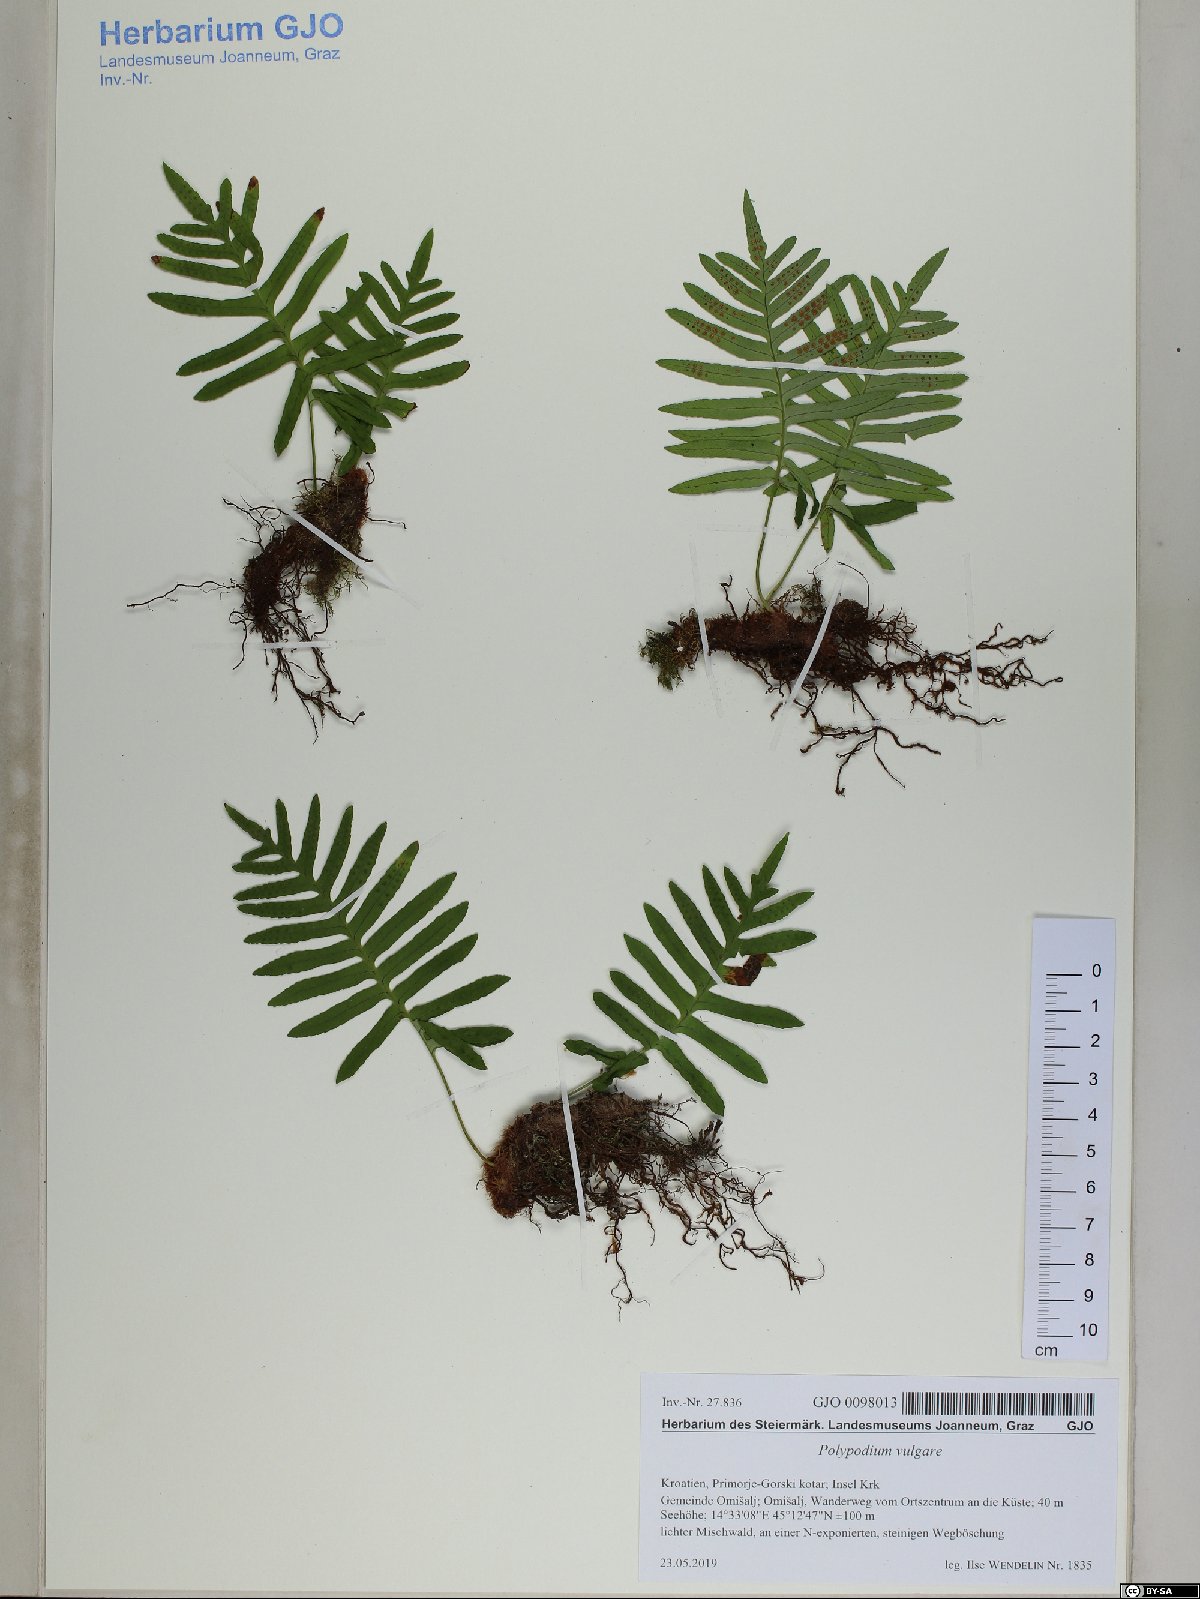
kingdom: Plantae
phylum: Tracheophyta
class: Polypodiopsida
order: Polypodiales
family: Polypodiaceae
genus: Polypodium
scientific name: Polypodium vulgare
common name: Common polypody
